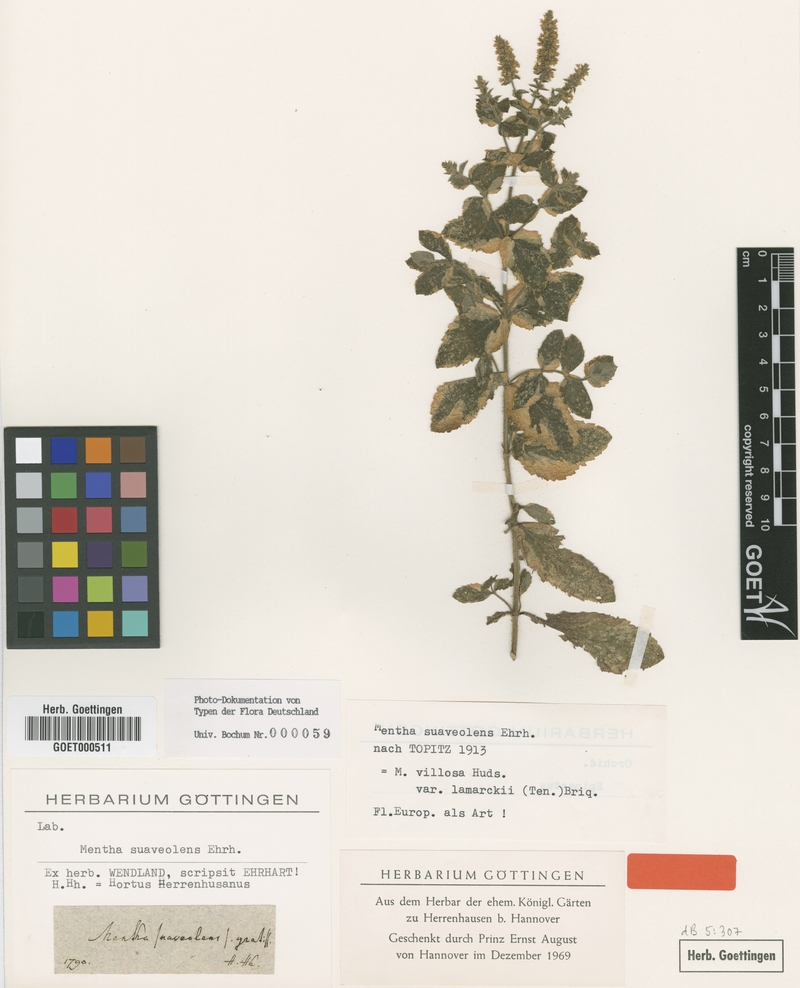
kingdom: Plantae
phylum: Tracheophyta
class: Magnoliopsida
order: Lamiales
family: Lamiaceae
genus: Mentha
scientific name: Mentha suaveolens
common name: Apple mint
